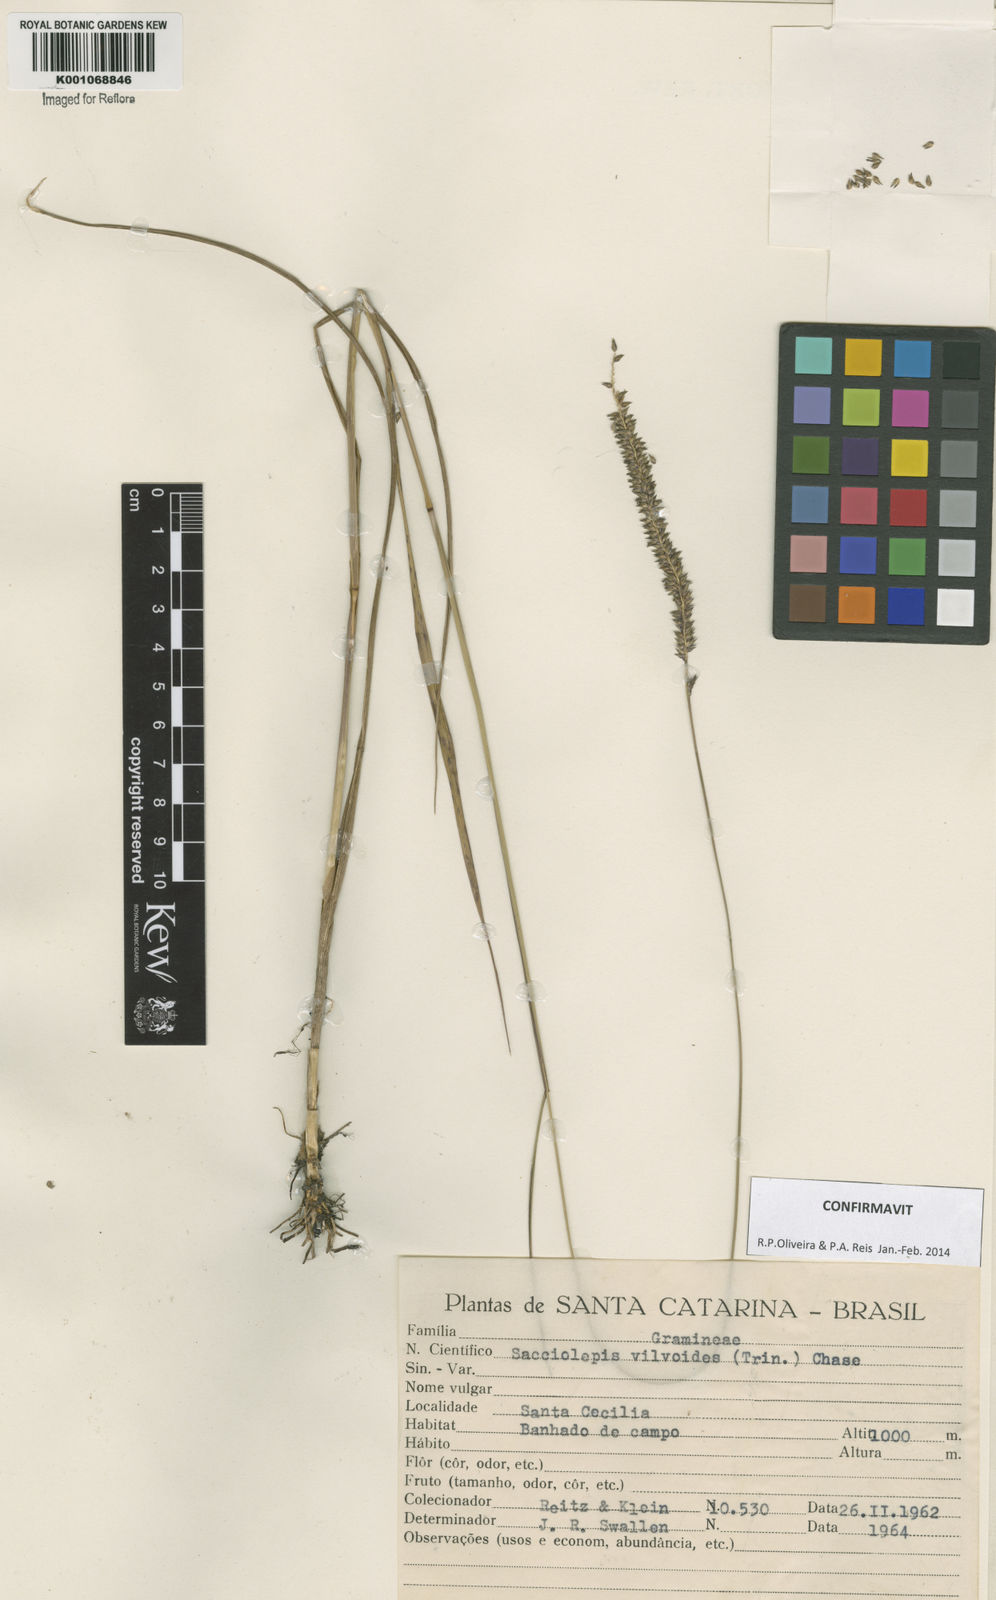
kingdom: Plantae
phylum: Tracheophyta
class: Liliopsida
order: Poales
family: Poaceae
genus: Sacciolepis
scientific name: Sacciolepis vilvoides
